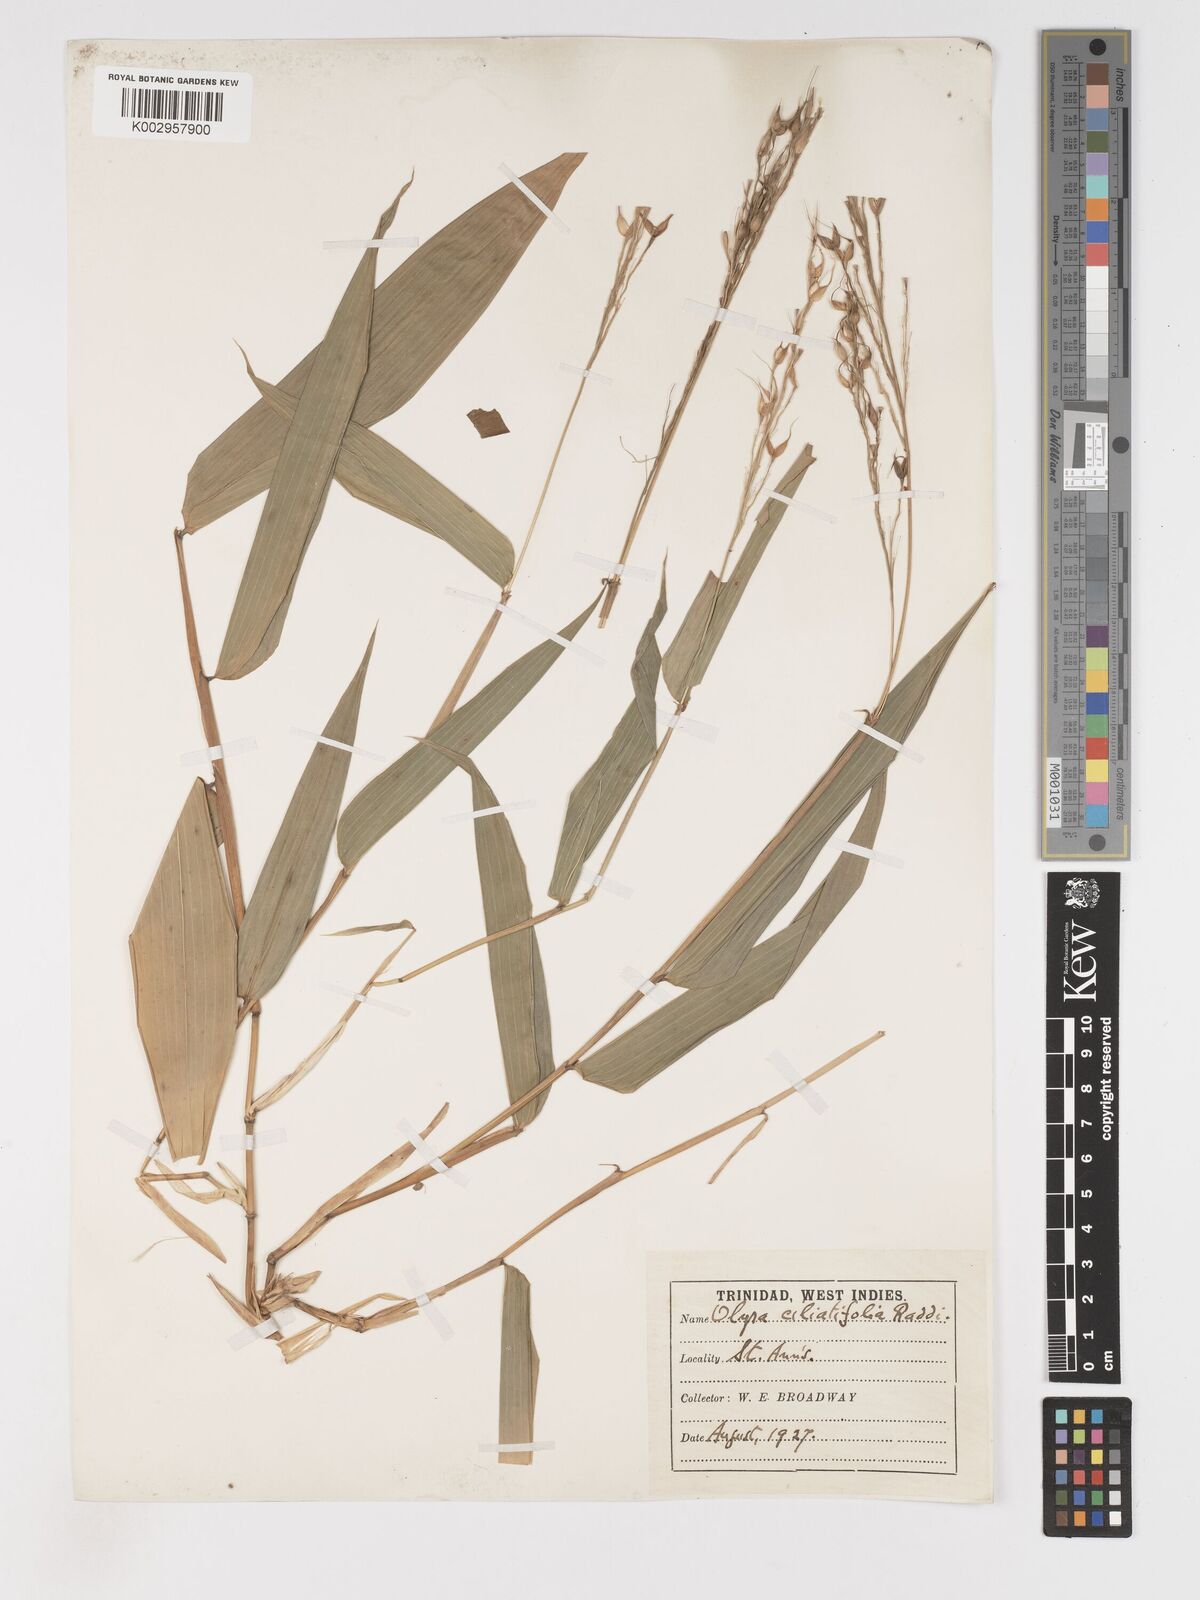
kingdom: Plantae
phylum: Tracheophyta
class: Liliopsida
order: Poales
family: Poaceae
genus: Olyra
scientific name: Olyra latifolia
